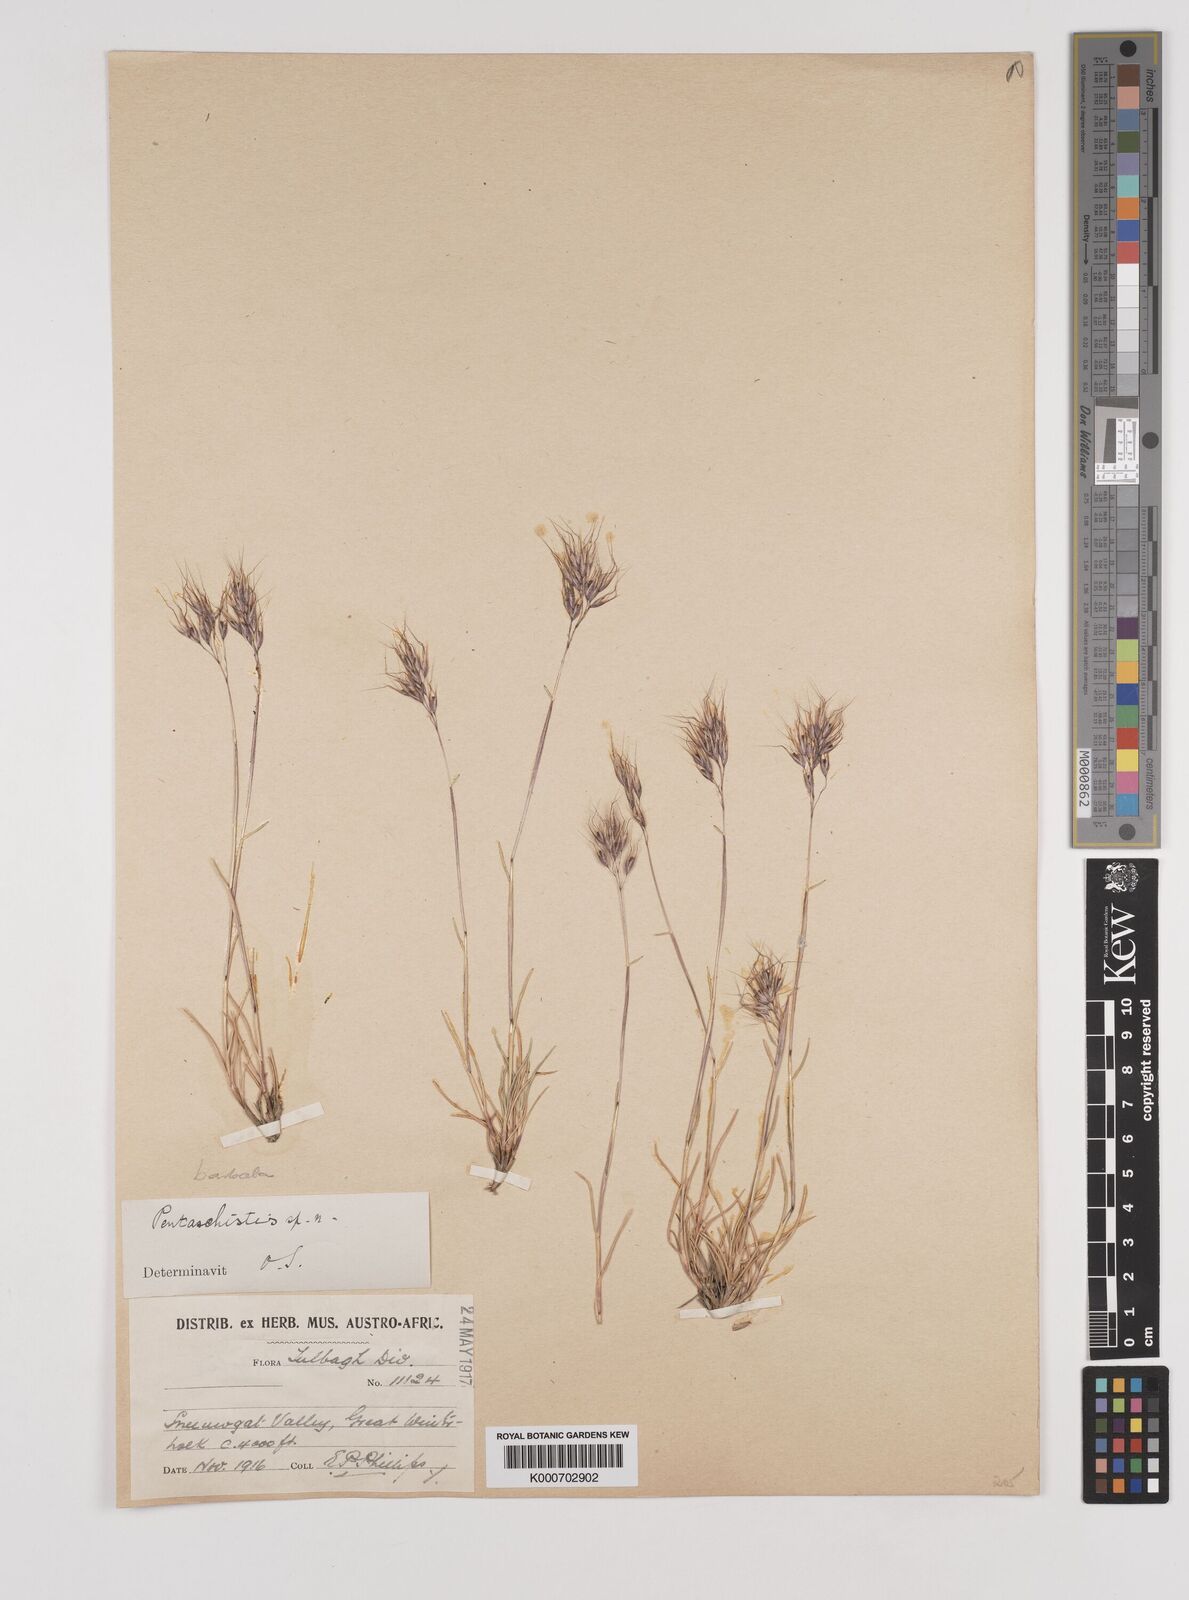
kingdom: Plantae
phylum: Tracheophyta
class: Liliopsida
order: Poales
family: Poaceae
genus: Pentameris
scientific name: Pentameris barbata
